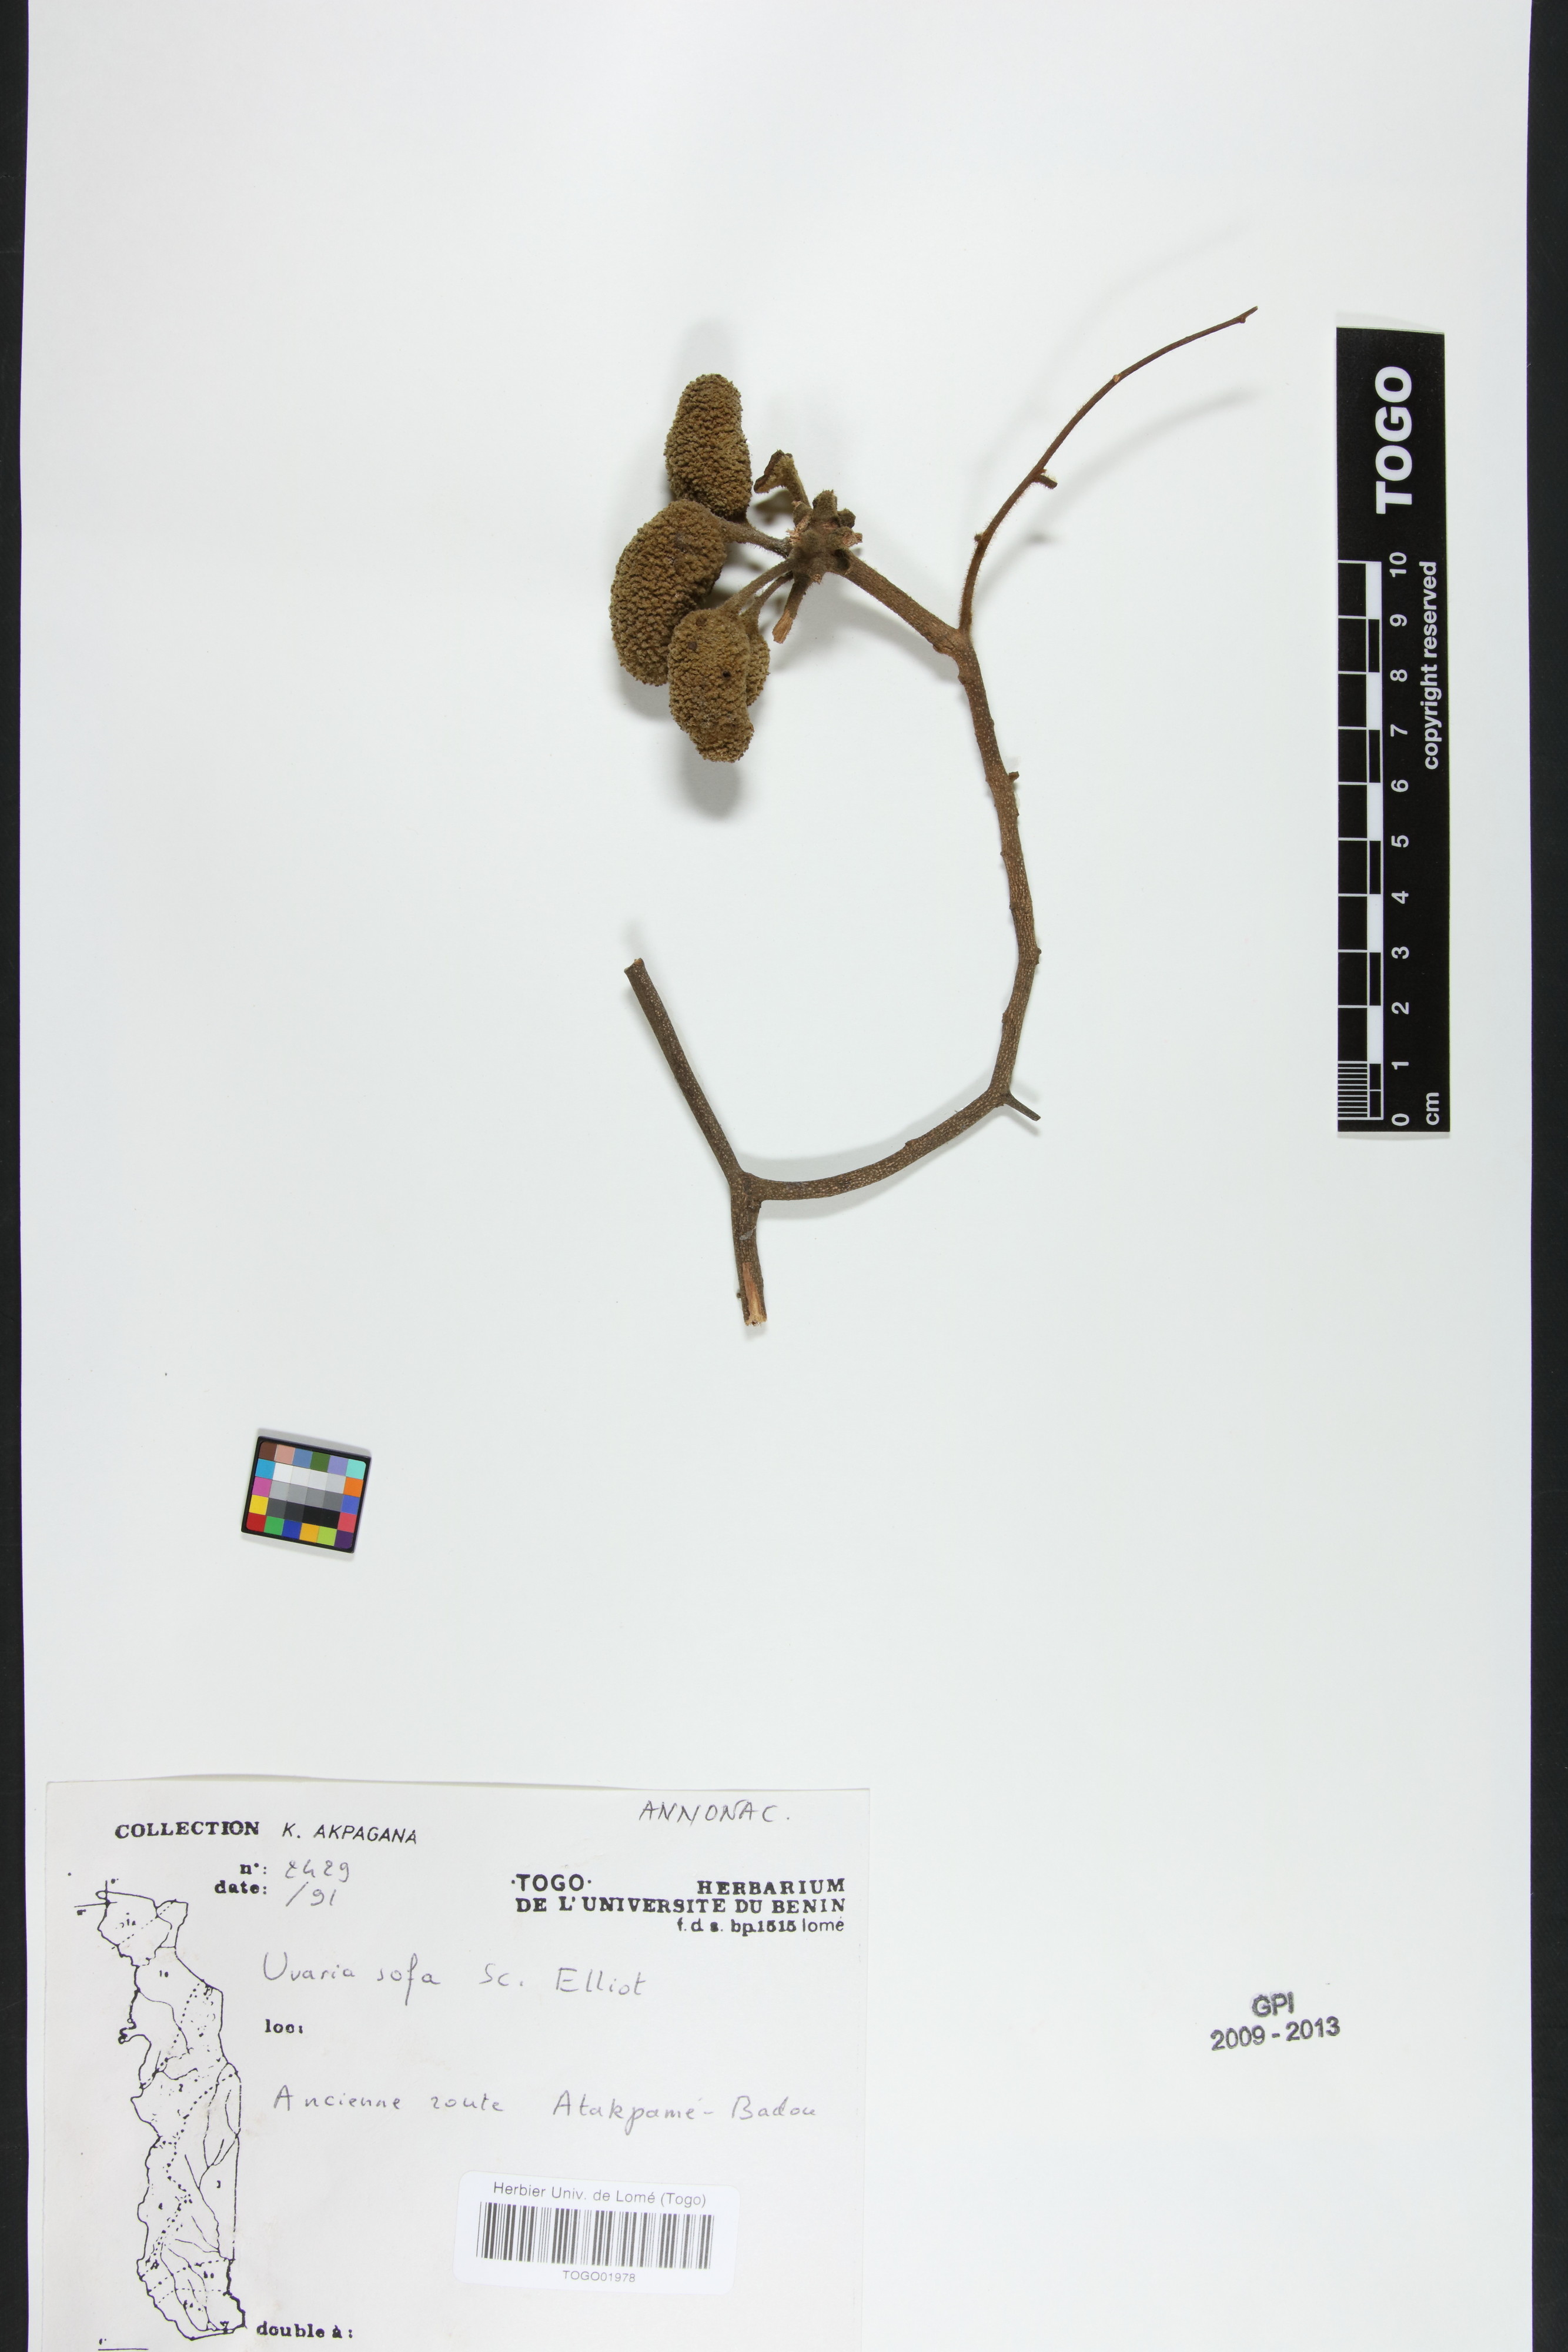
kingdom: Plantae
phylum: Tracheophyta
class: Magnoliopsida
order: Magnoliales
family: Annonaceae
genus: Uvaria
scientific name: Uvaria sofa
